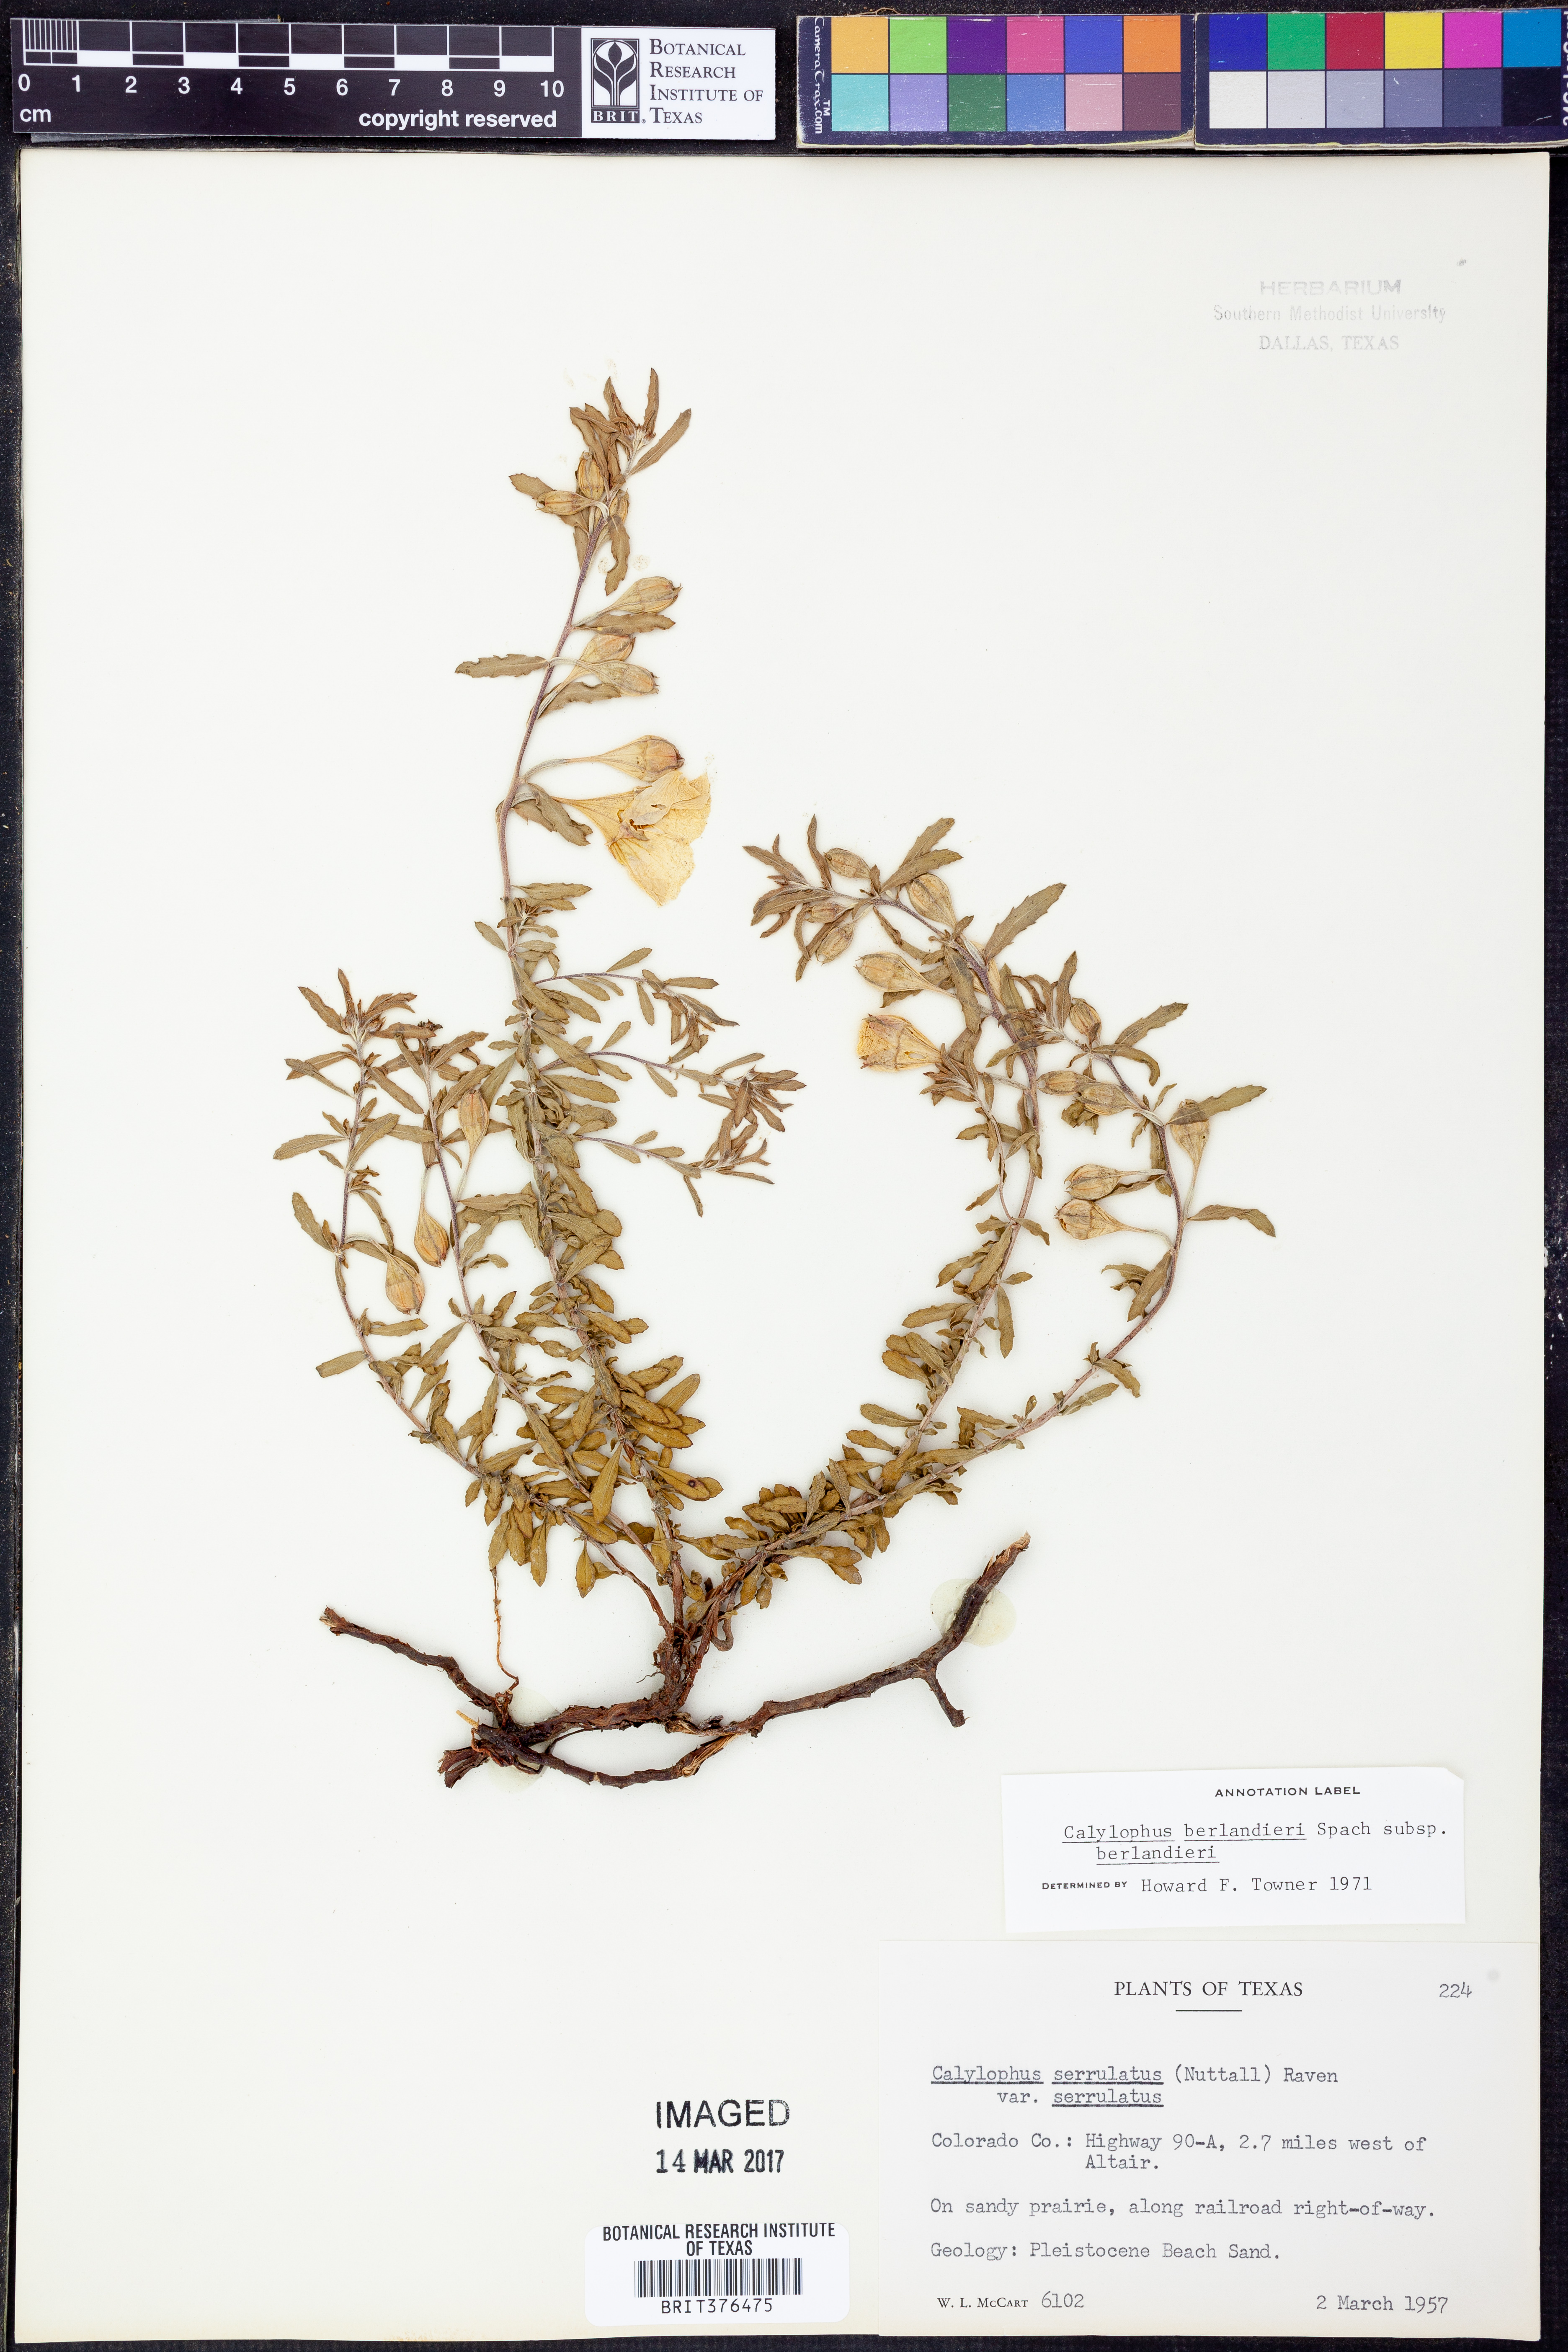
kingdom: Plantae
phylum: Tracheophyta
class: Magnoliopsida
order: Myrtales
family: Onagraceae
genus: Oenothera
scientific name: Oenothera capillifolia
